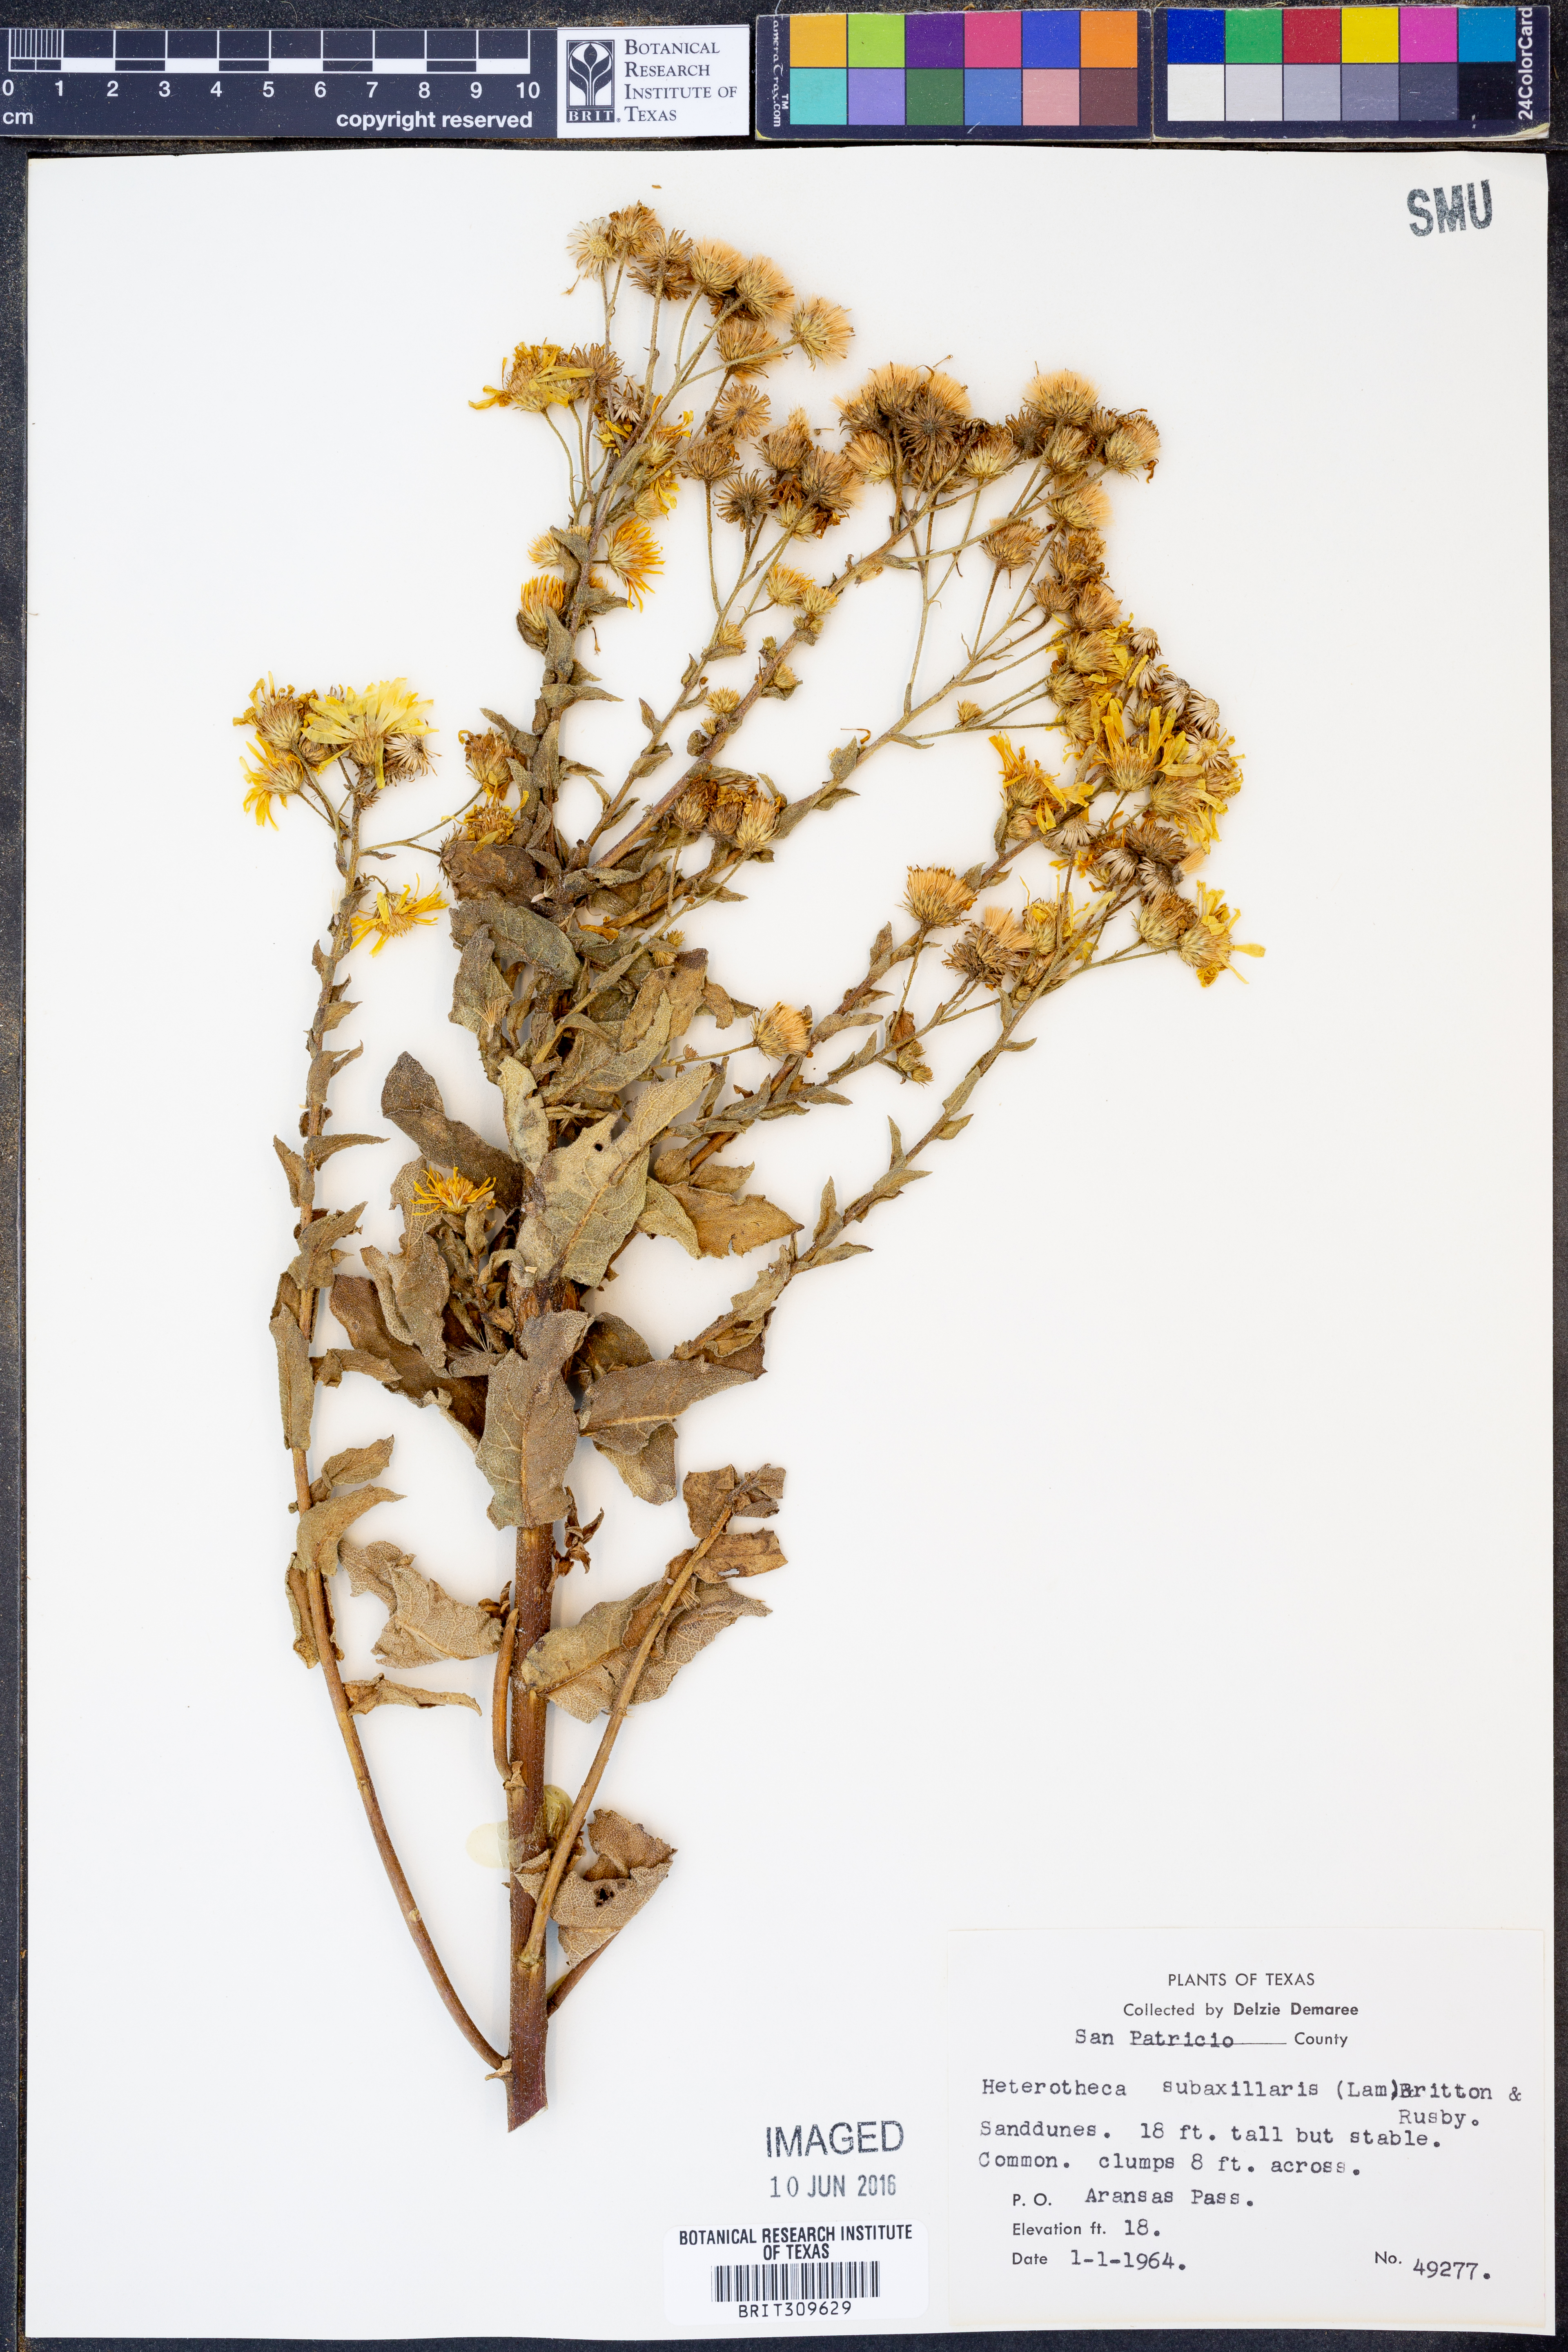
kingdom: Plantae
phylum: Tracheophyta
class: Magnoliopsida
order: Asterales
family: Asteraceae
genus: Heterotheca
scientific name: Heterotheca subaxillaris
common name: Camphorweed
